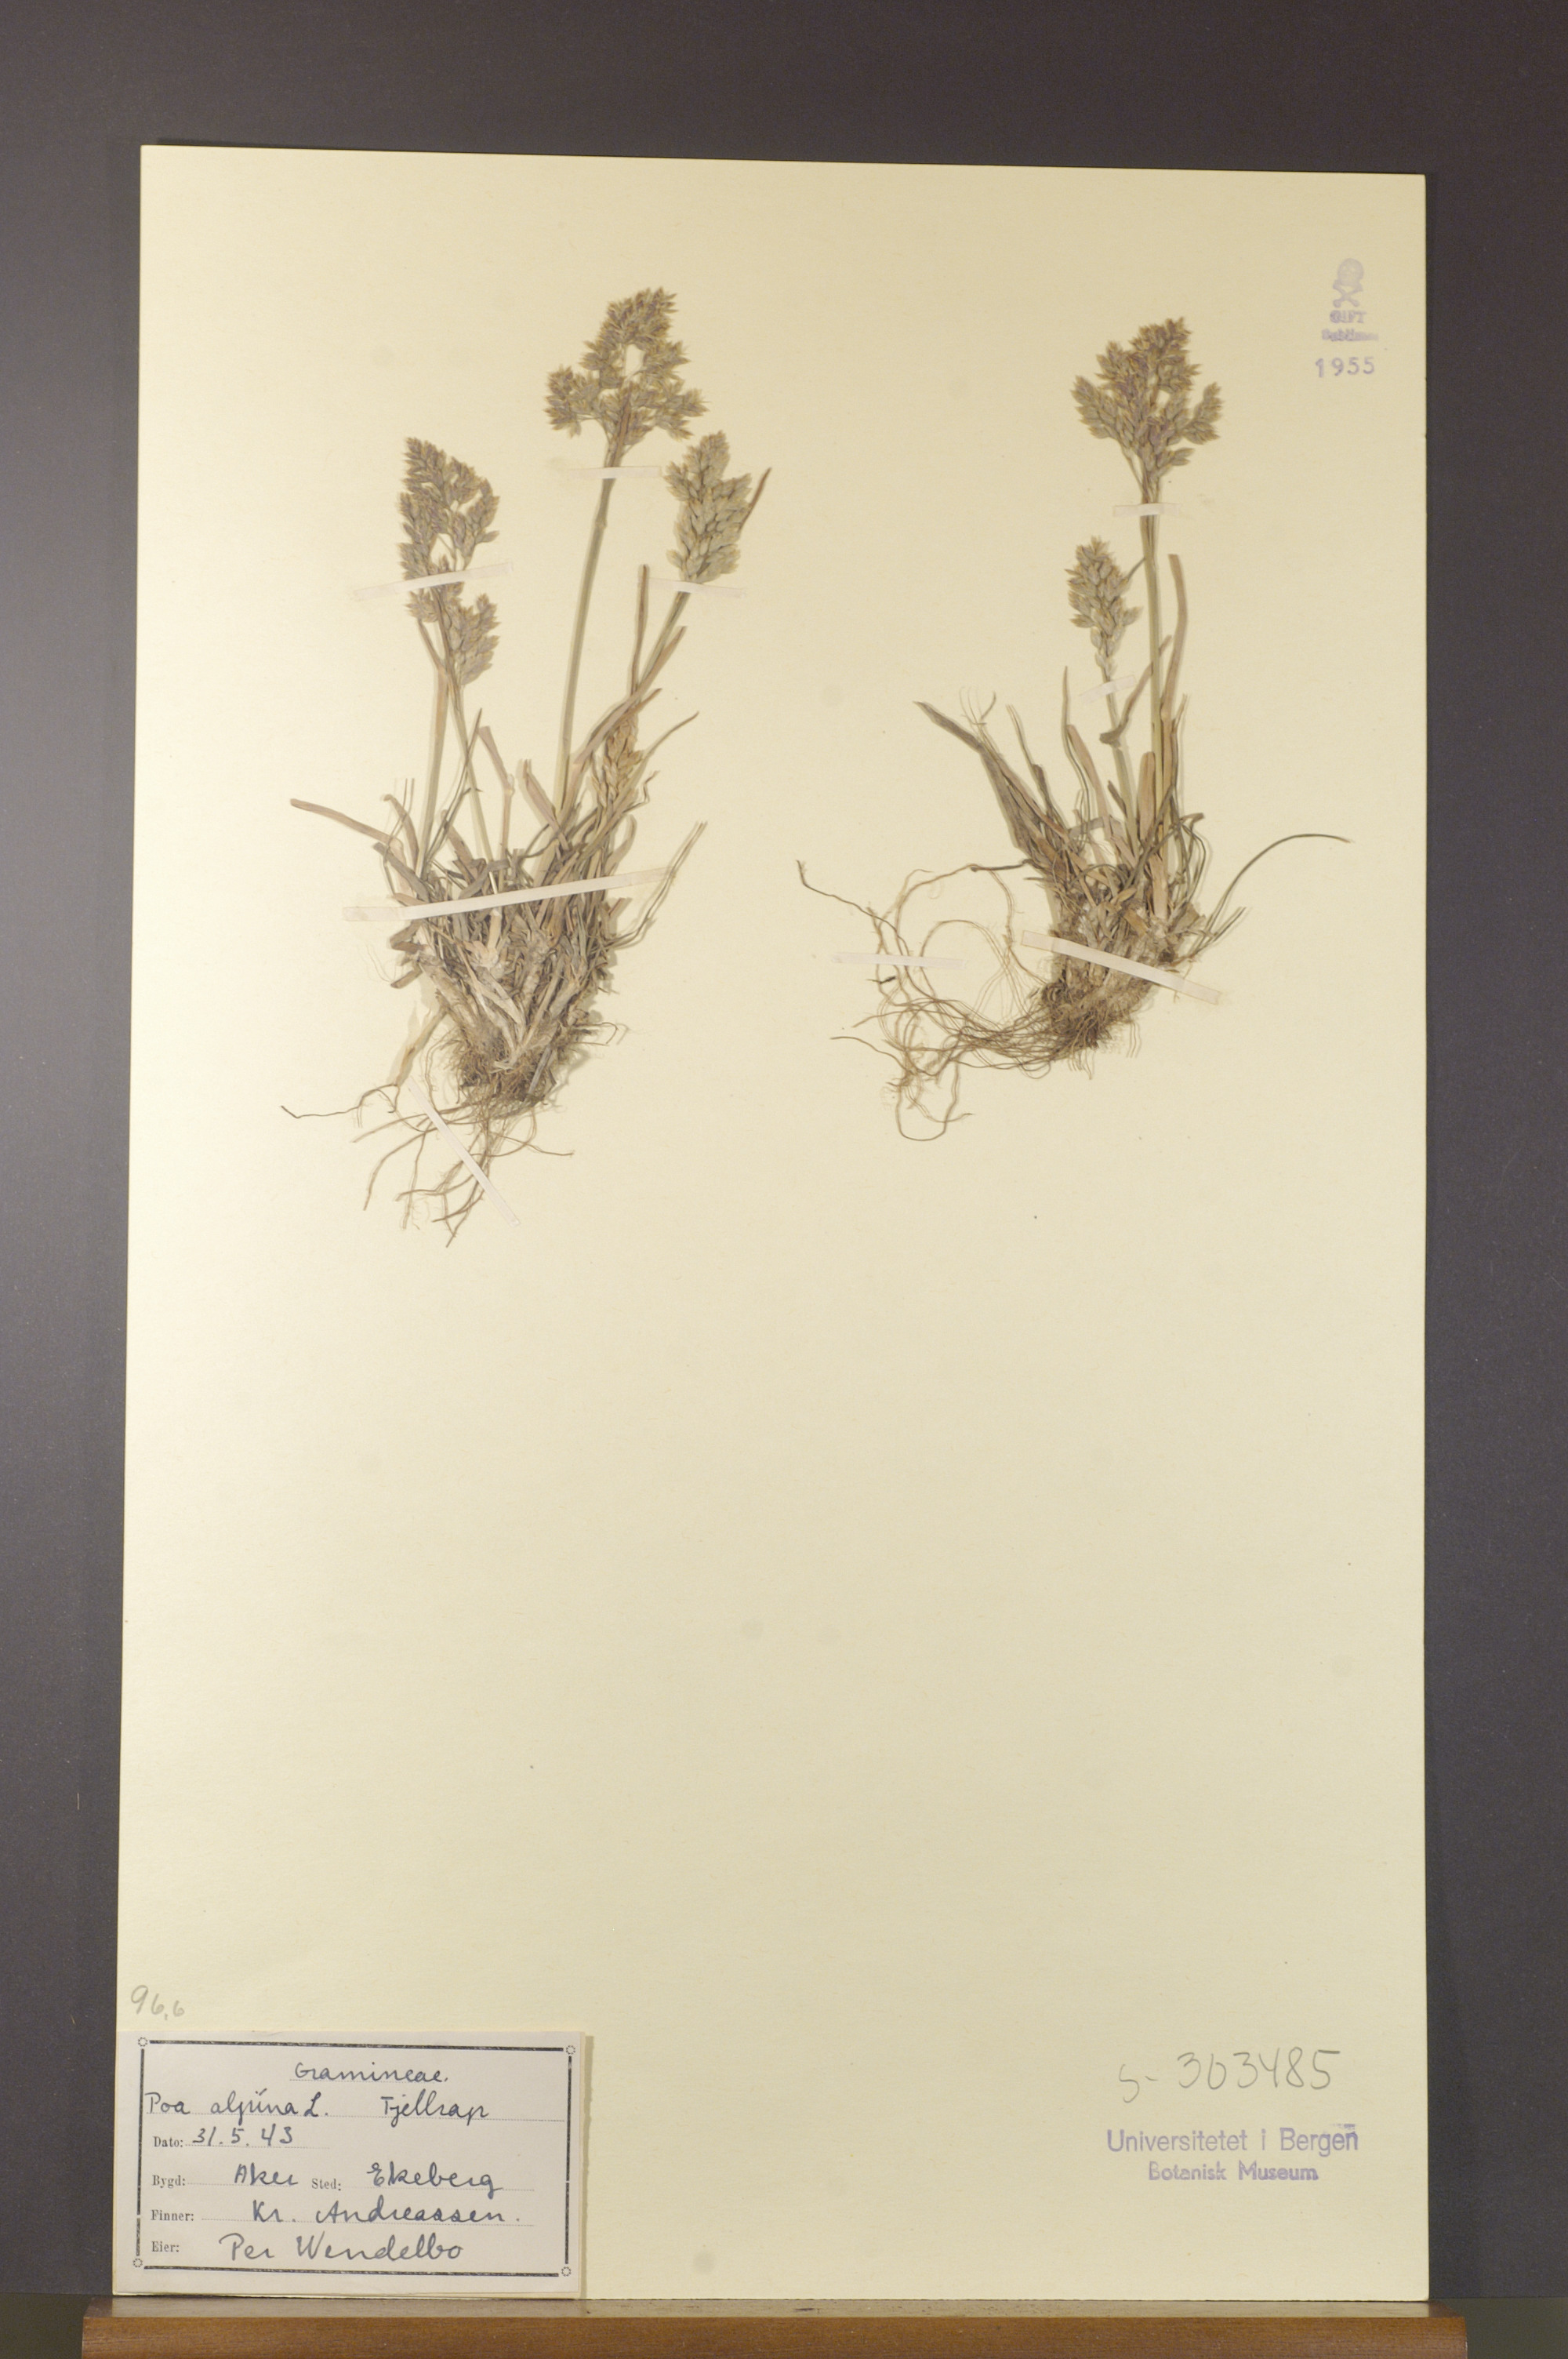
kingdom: Plantae
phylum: Tracheophyta
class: Liliopsida
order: Poales
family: Poaceae
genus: Poa
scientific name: Poa alpina
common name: Alpine bluegrass
